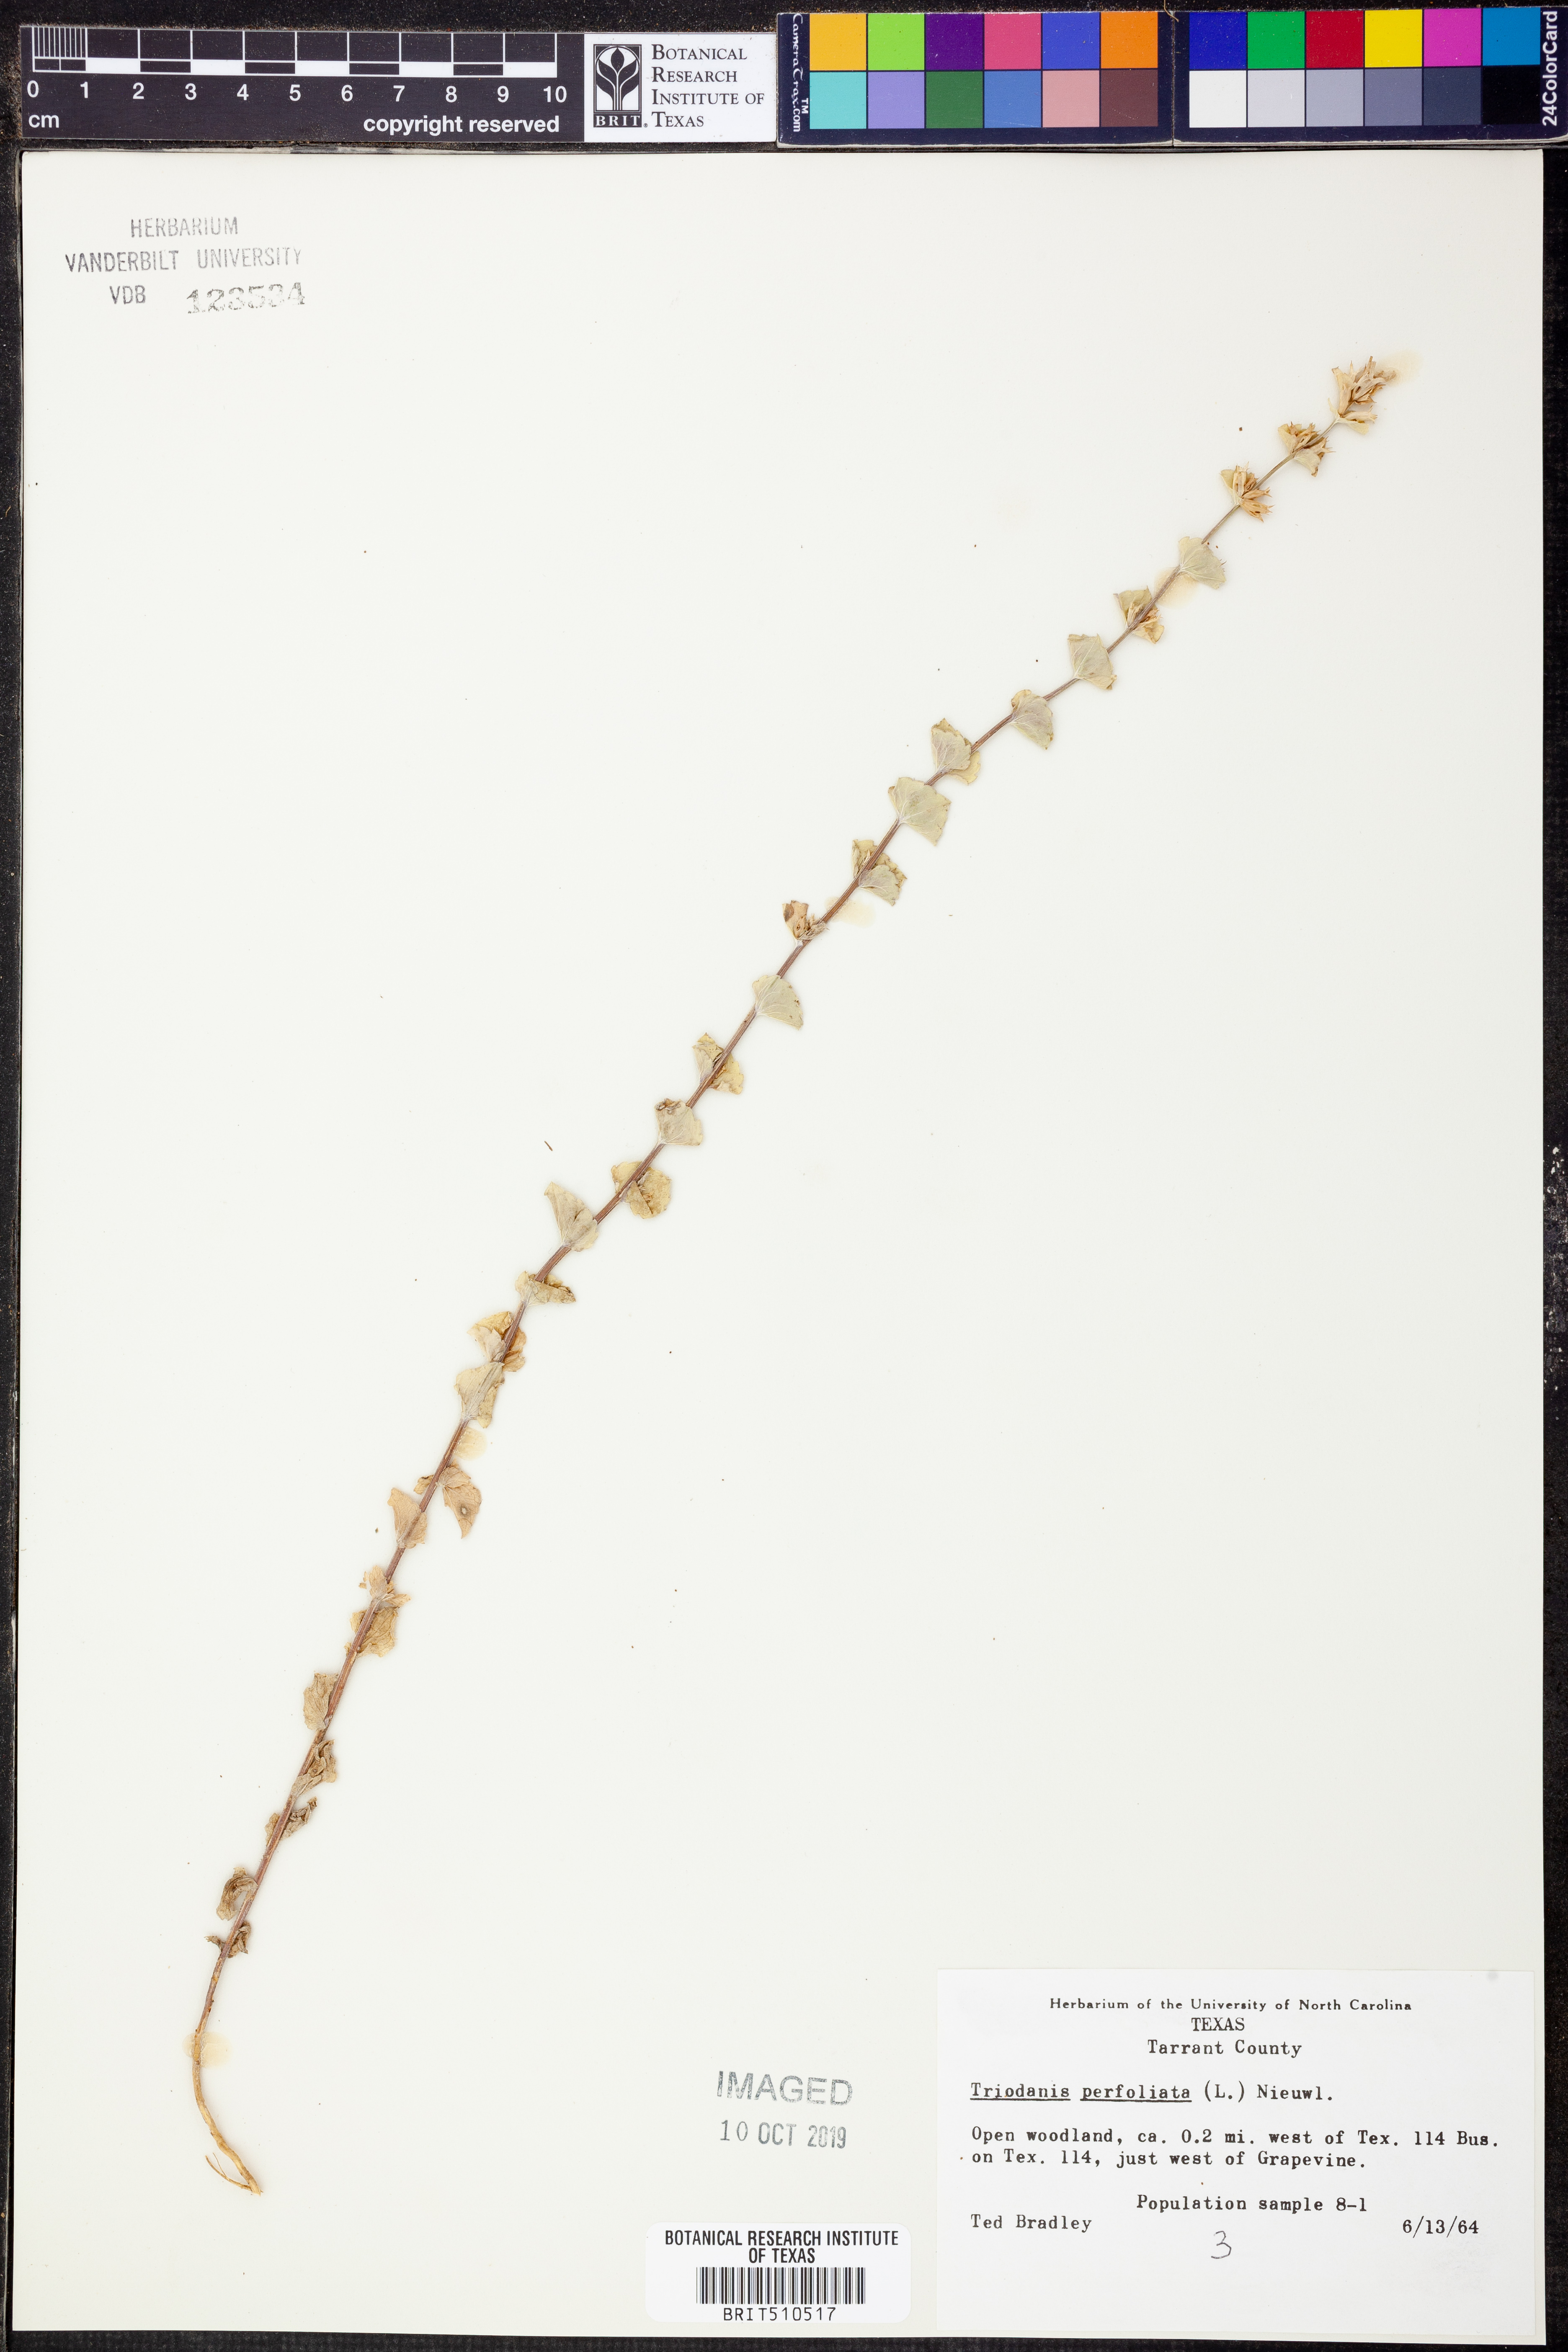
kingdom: Plantae
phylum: Tracheophyta
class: Magnoliopsida
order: Asterales
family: Campanulaceae
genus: Triodanis
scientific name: Triodanis perfoliata
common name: Clasping venus' looking-glass
